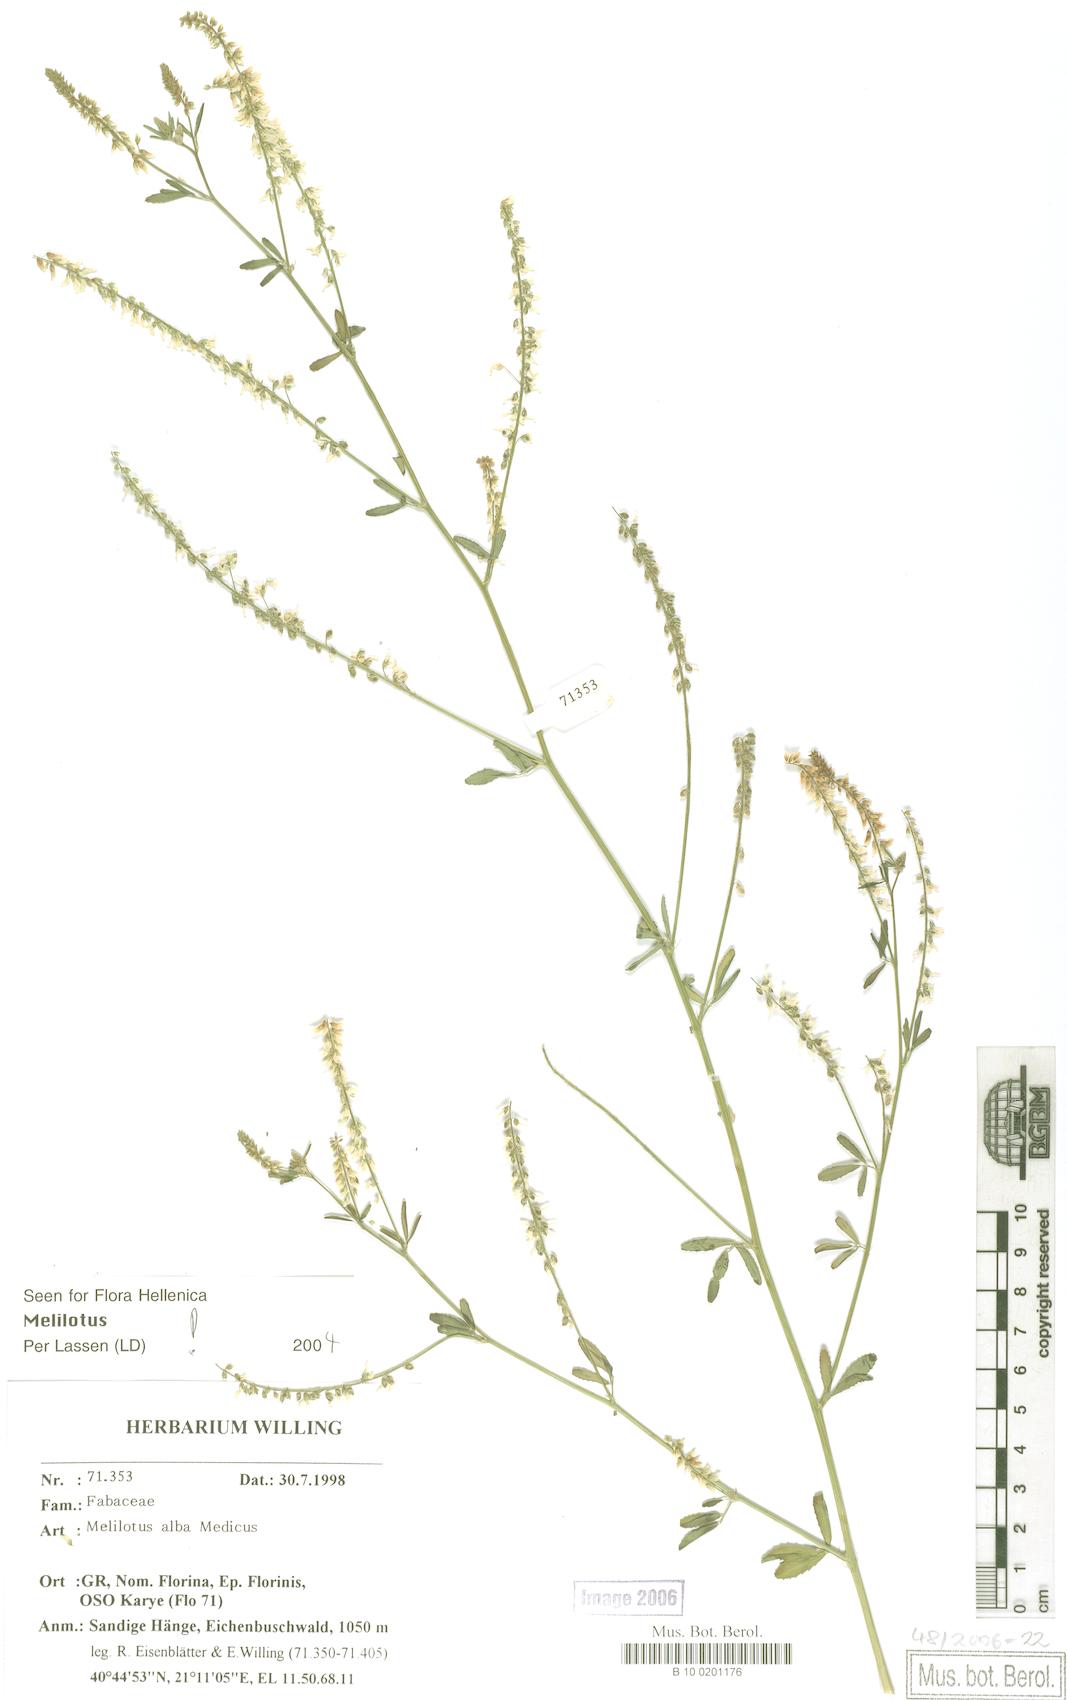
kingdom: Plantae
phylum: Tracheophyta
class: Magnoliopsida
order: Fabales
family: Fabaceae
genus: Melilotus
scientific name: Melilotus albus
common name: White melilot
